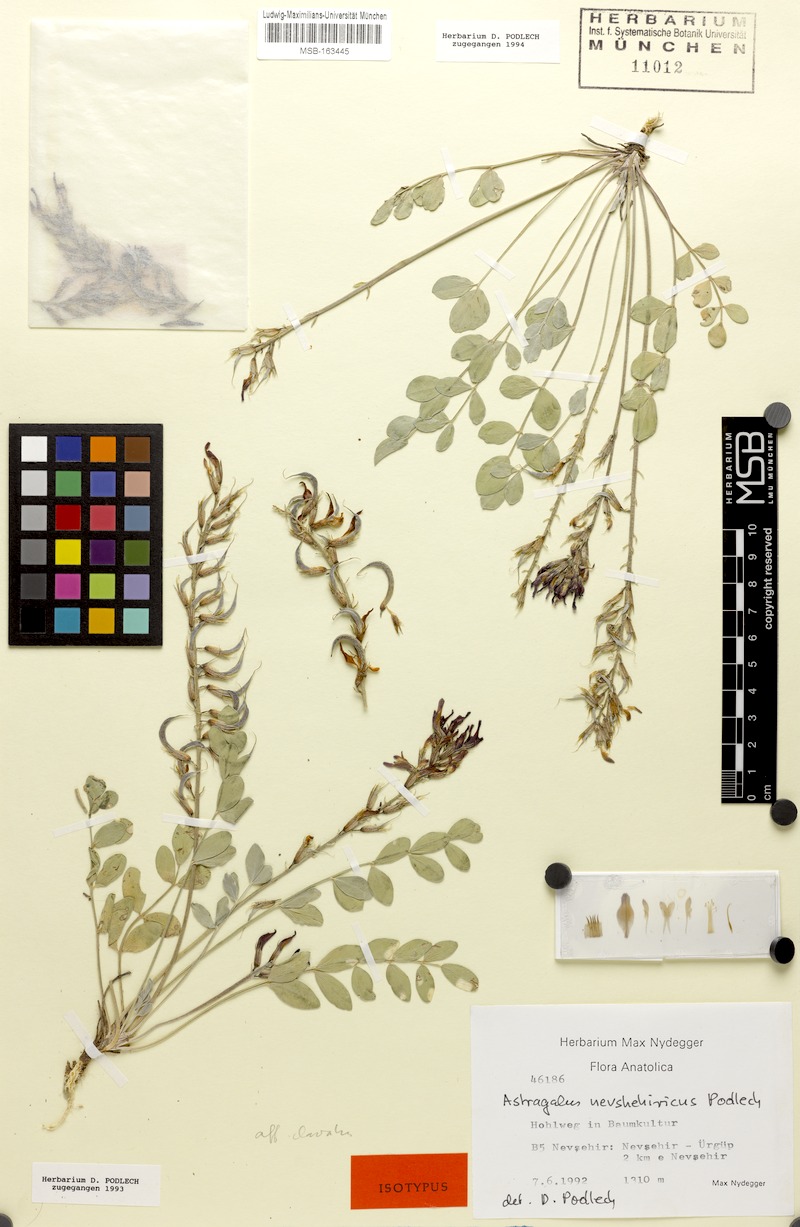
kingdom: Plantae
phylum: Tracheophyta
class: Magnoliopsida
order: Fabales
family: Fabaceae
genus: Astragalus
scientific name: Astragalus tigridis
